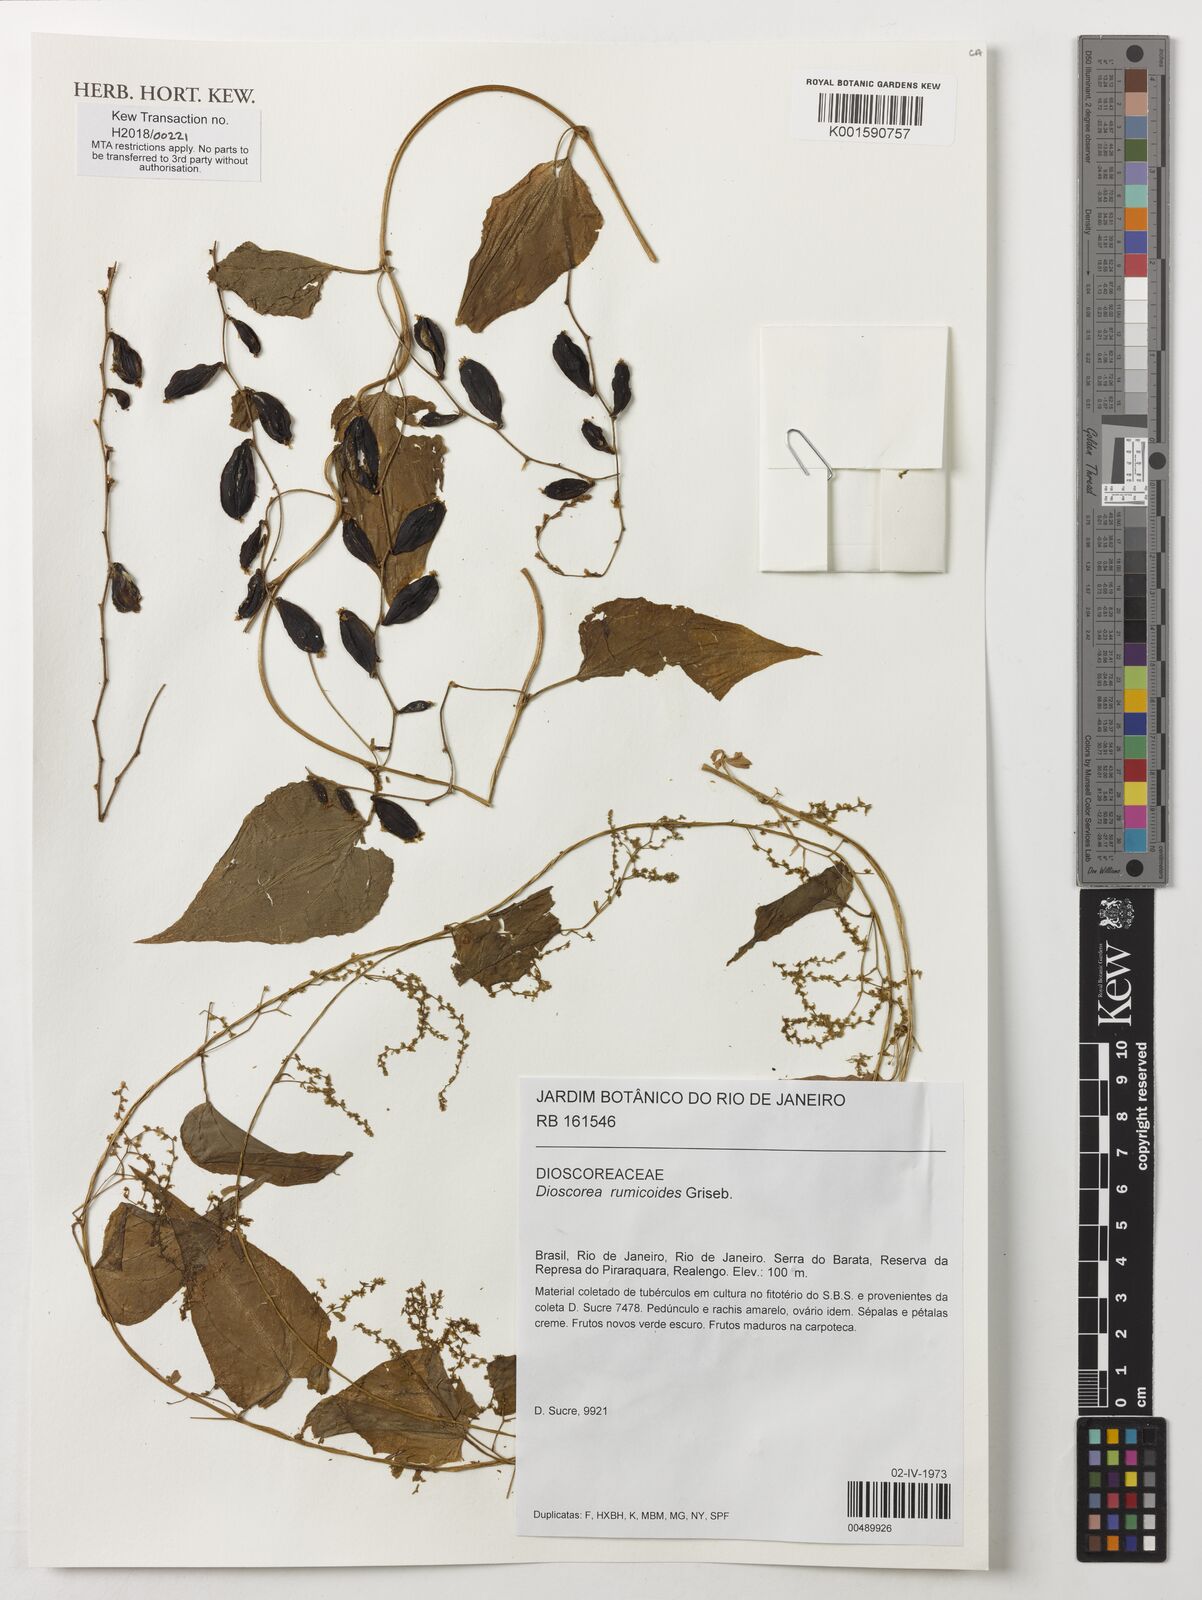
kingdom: Plantae
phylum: Tracheophyta
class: Liliopsida
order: Dioscoreales
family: Dioscoreaceae
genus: Dioscorea
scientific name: Dioscorea rumicoides
